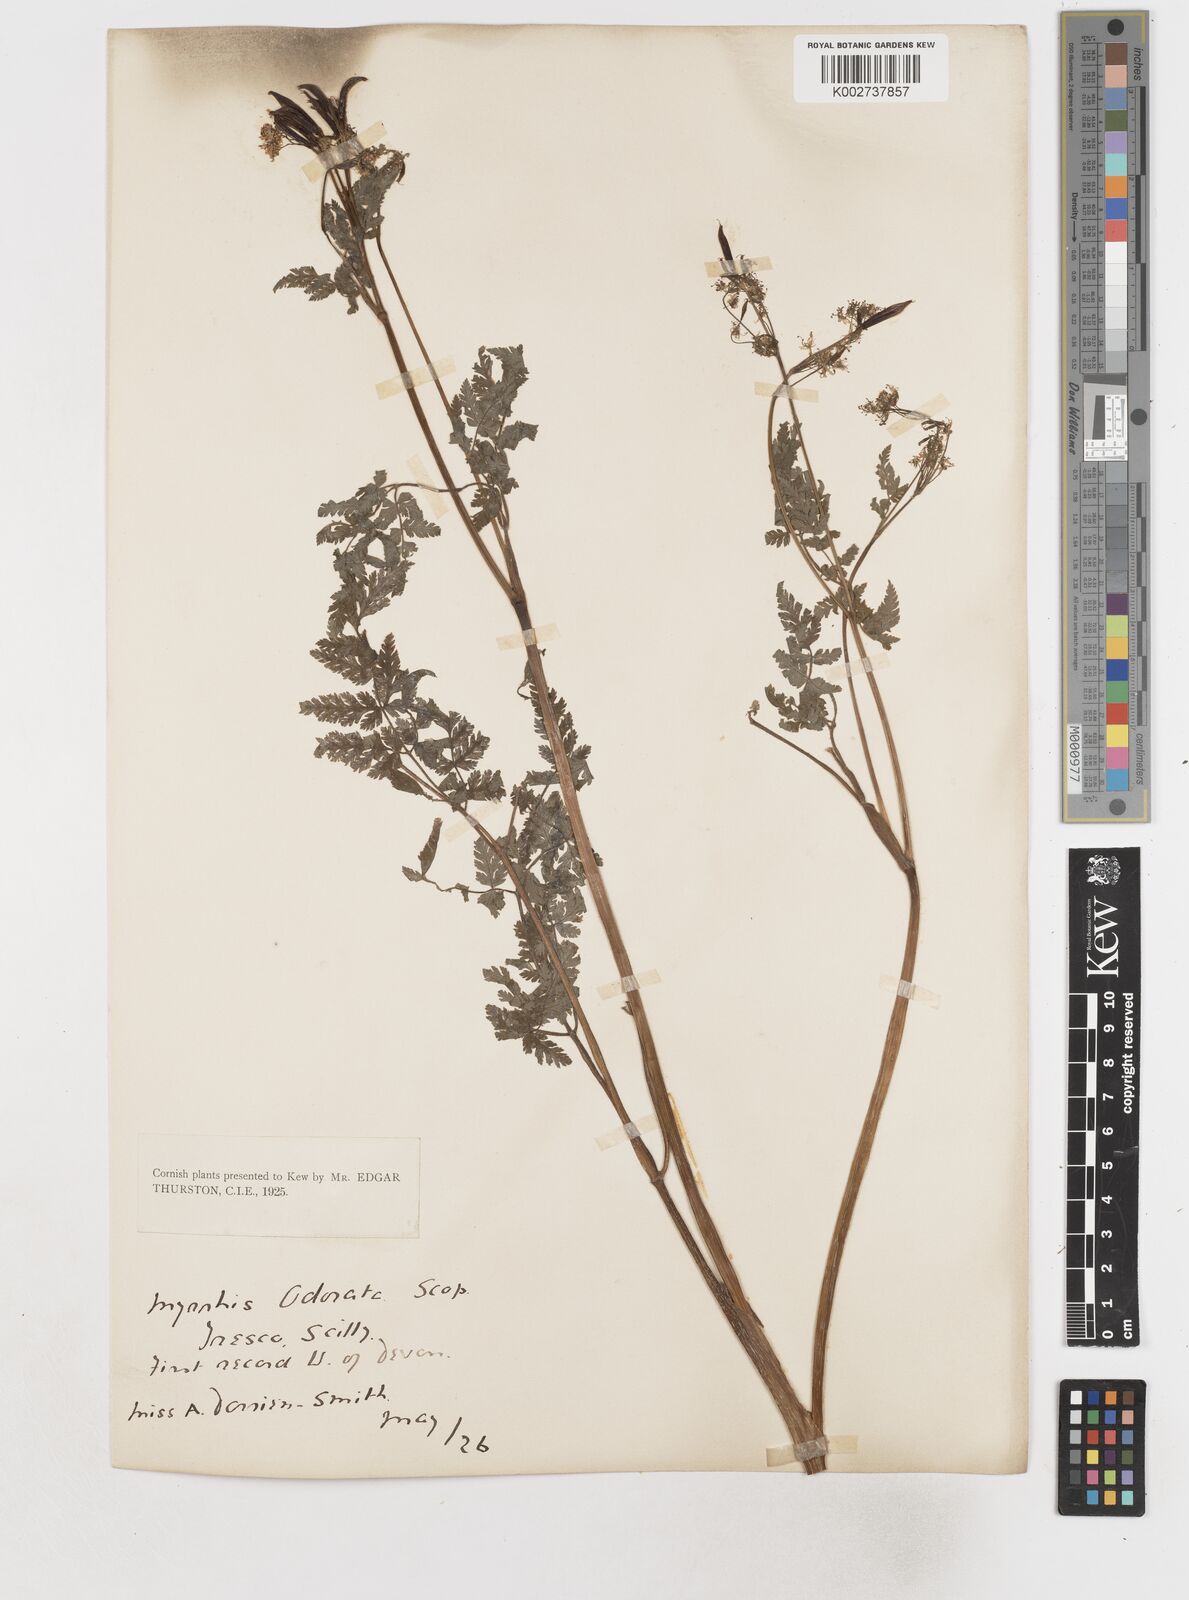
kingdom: Plantae
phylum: Tracheophyta
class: Magnoliopsida
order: Apiales
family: Apiaceae
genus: Myrrhis
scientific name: Myrrhis odorata
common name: Sweet cicely
